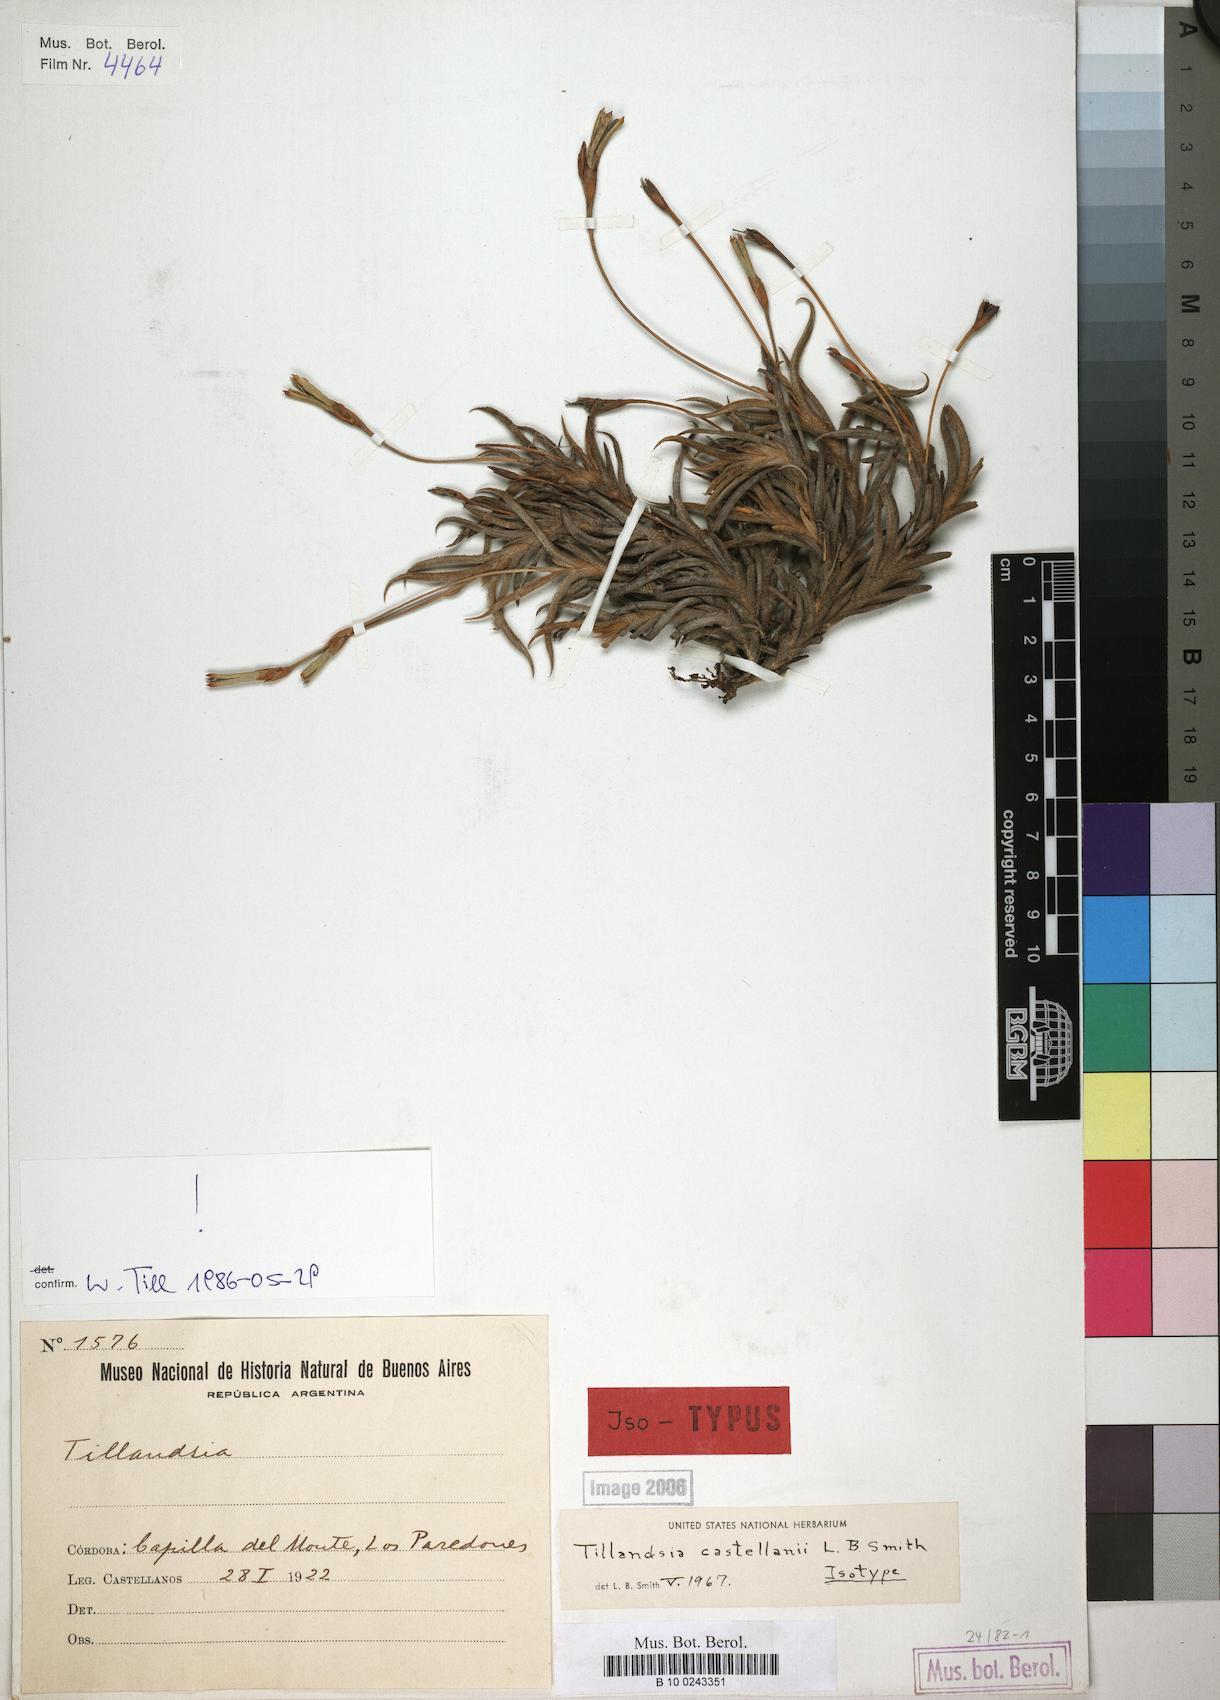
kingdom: Plantae
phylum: Tracheophyta
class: Liliopsida
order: Poales
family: Bromeliaceae
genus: Tillandsia
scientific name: Tillandsia castellanii
